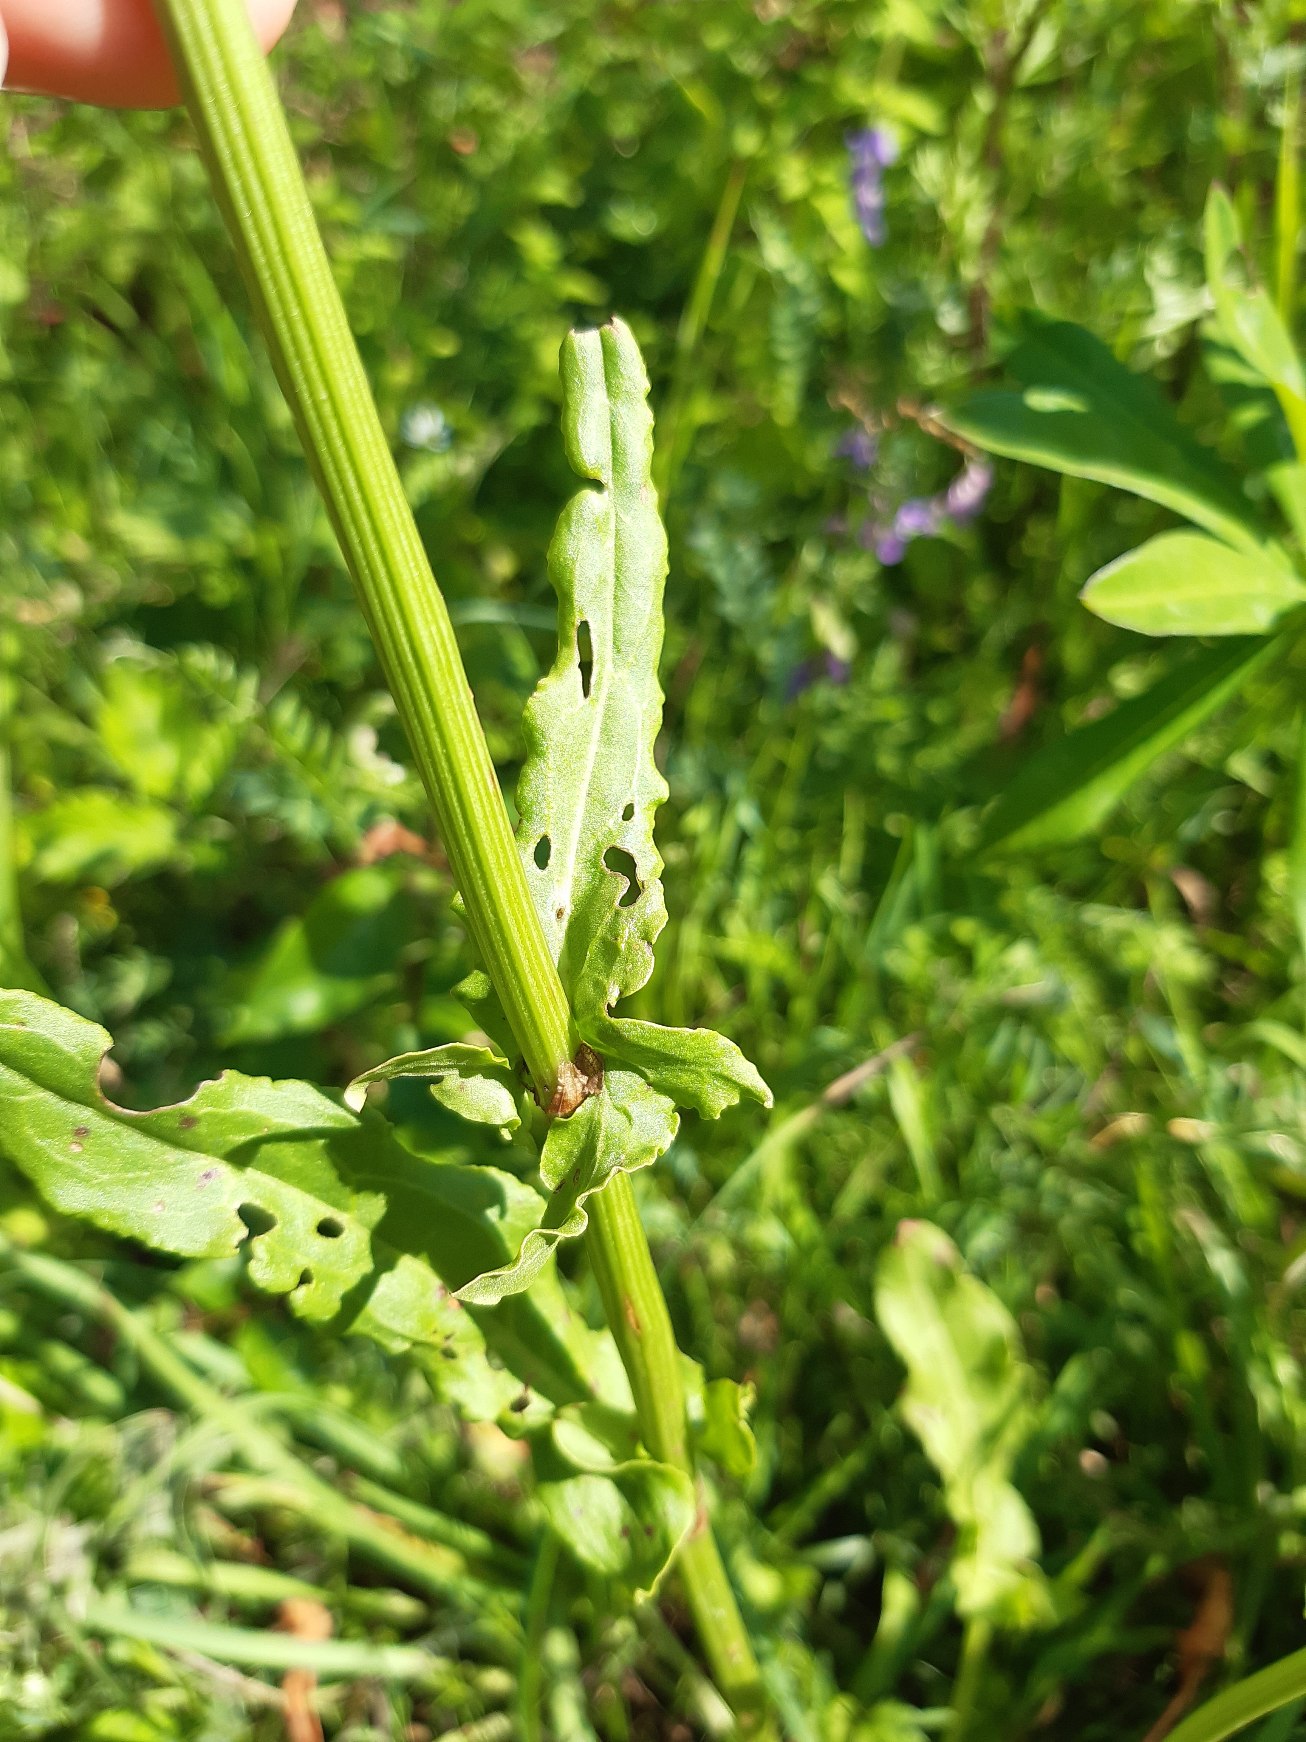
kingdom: Plantae
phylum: Tracheophyta
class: Magnoliopsida
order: Caryophyllales
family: Polygonaceae
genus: Rumex
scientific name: Rumex thyrsiflorus
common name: Dusk-syre
